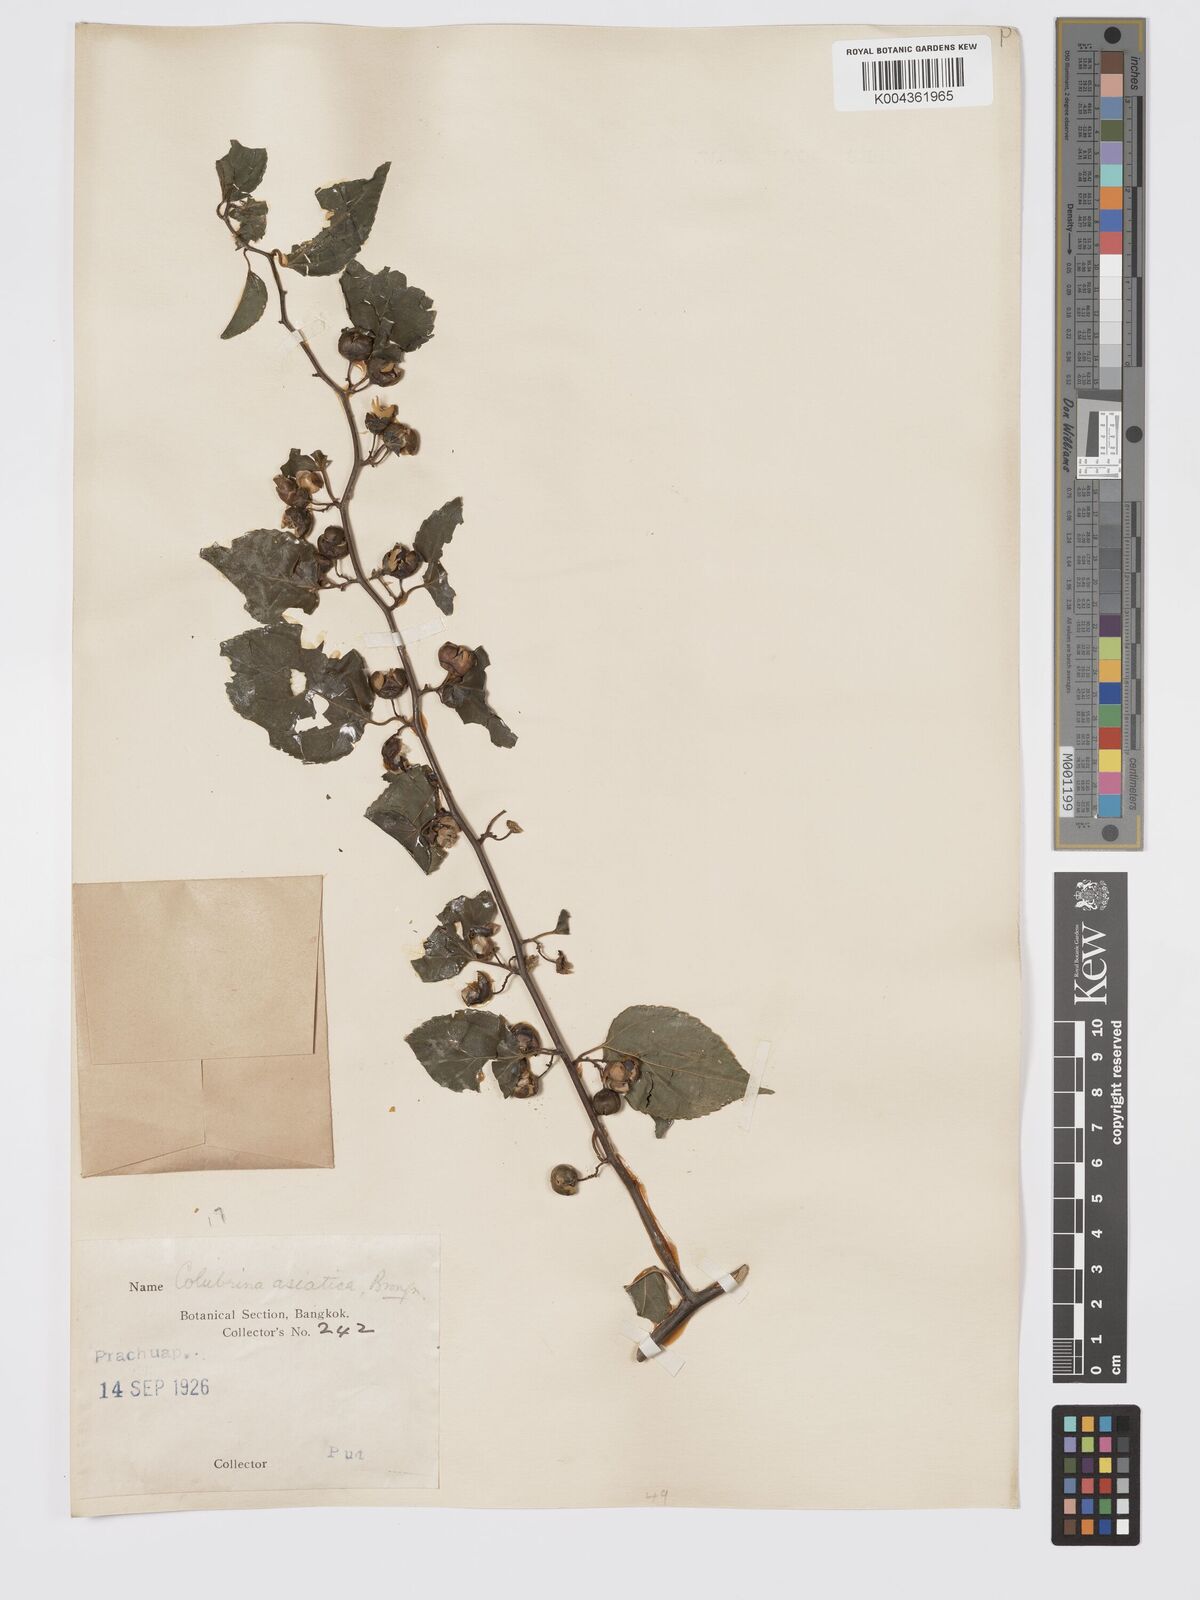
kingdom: Plantae
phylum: Tracheophyta
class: Magnoliopsida
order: Rosales
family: Rhamnaceae
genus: Colubrina
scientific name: Colubrina asiatica
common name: Asian nakedwood
